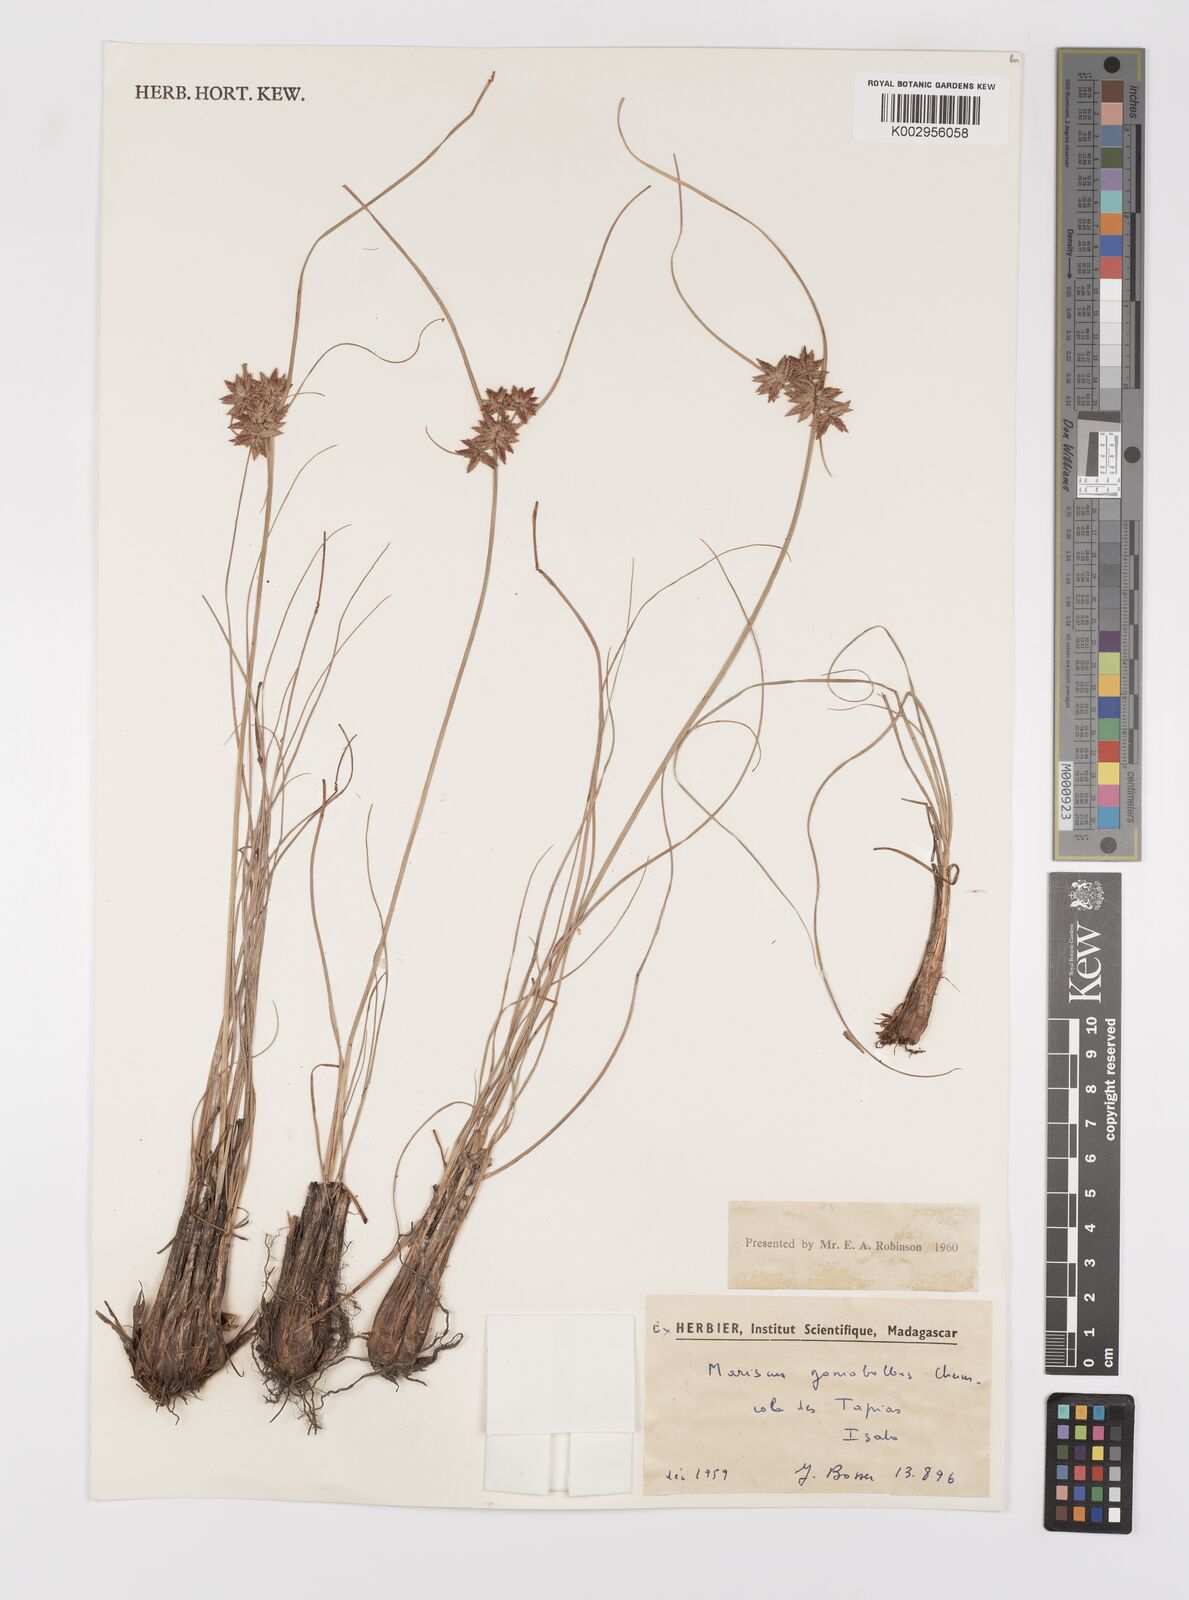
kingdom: Plantae
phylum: Tracheophyta
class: Liliopsida
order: Poales
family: Cyperaceae
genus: Cyperus
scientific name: Cyperus pseudovestitus
